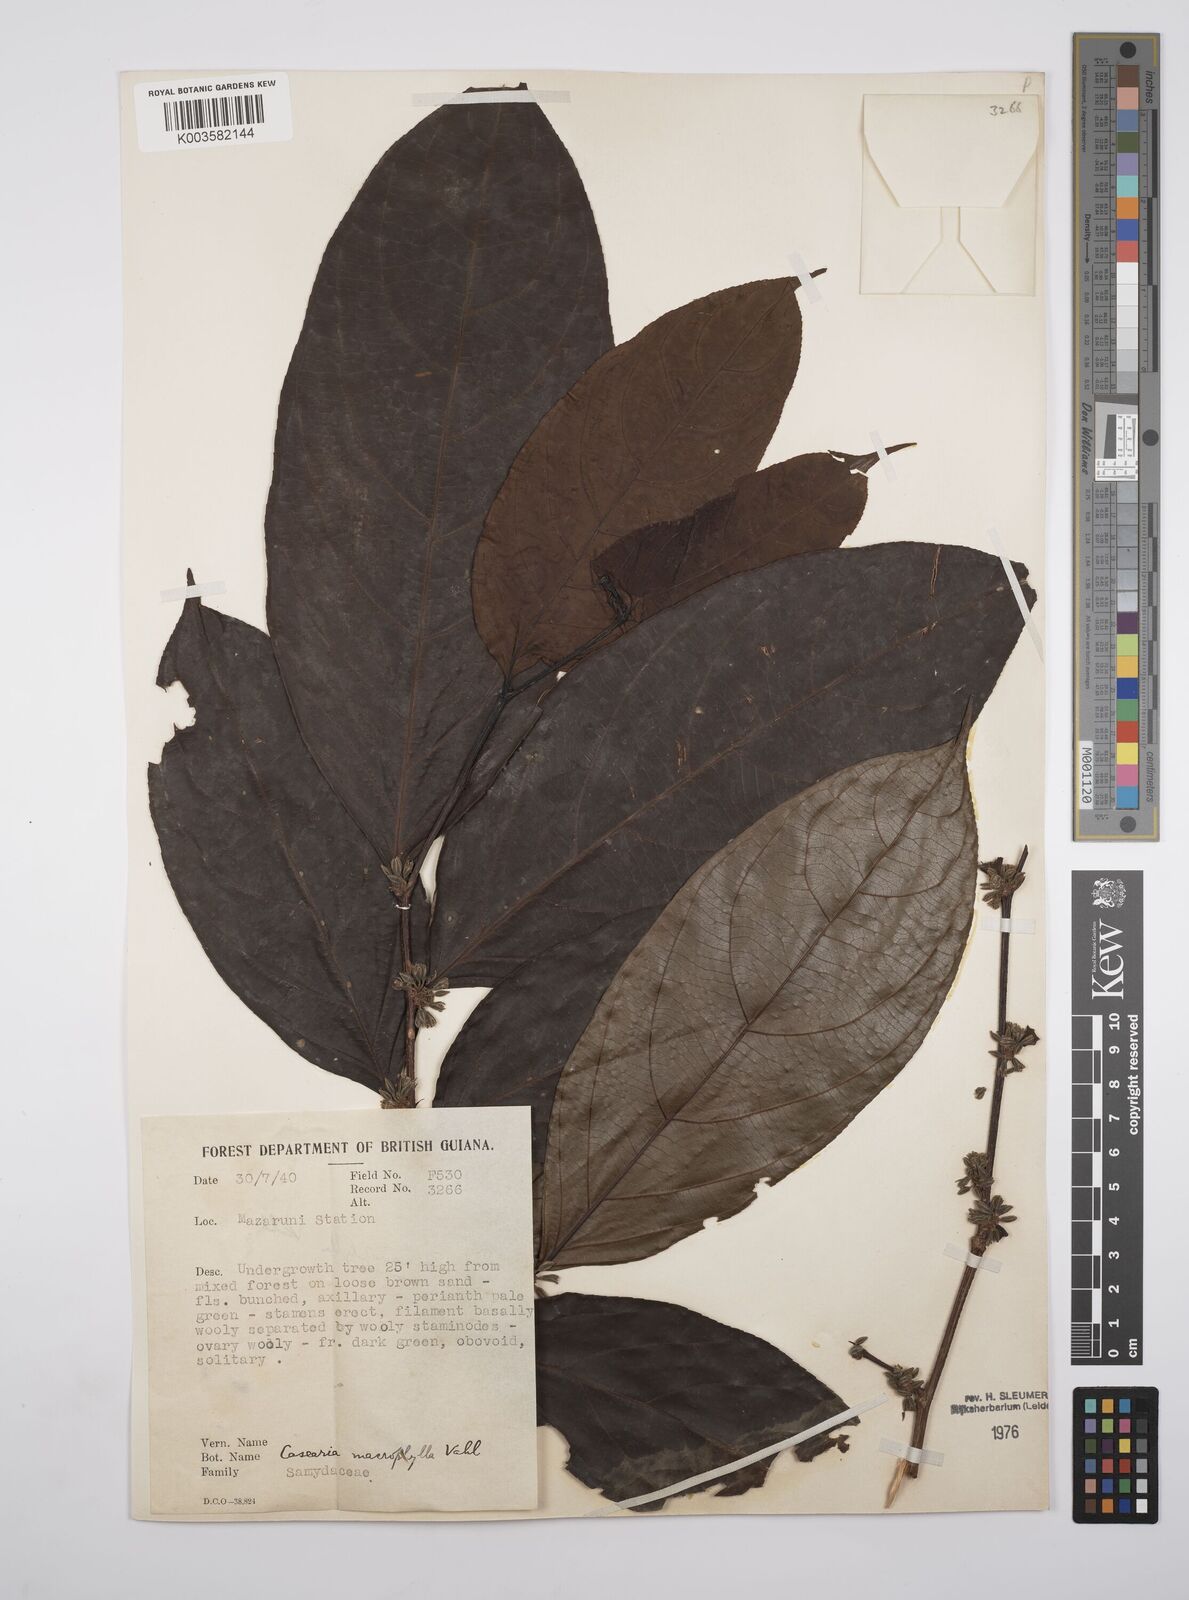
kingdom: Plantae
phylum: Tracheophyta
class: Magnoliopsida
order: Malpighiales
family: Salicaceae
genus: Casearia
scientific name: Casearia pitumba
